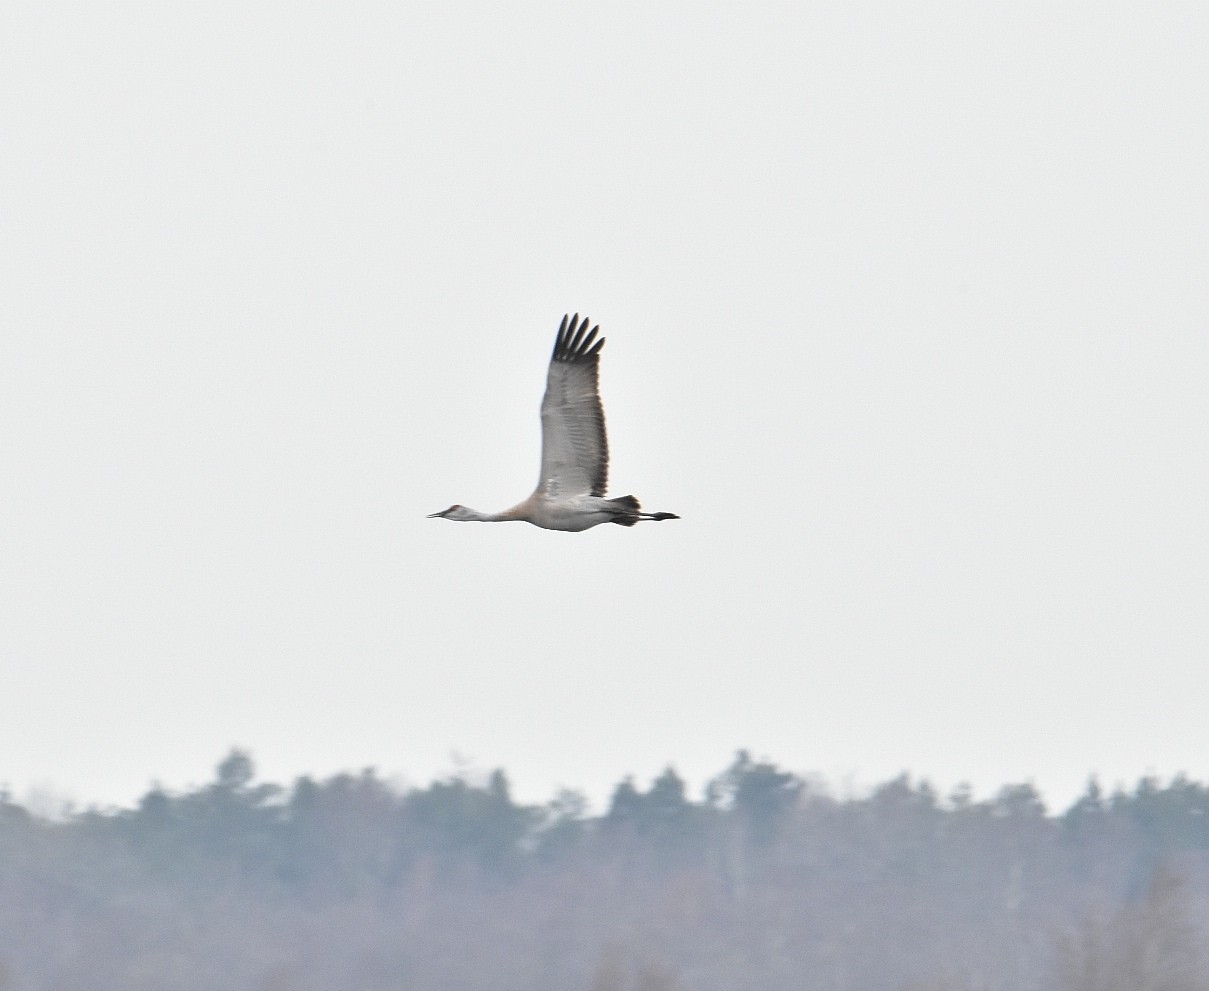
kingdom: Animalia
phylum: Chordata
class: Aves
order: Gruiformes
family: Gruidae
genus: Grus
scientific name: Grus canadensis
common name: Prærietrane
